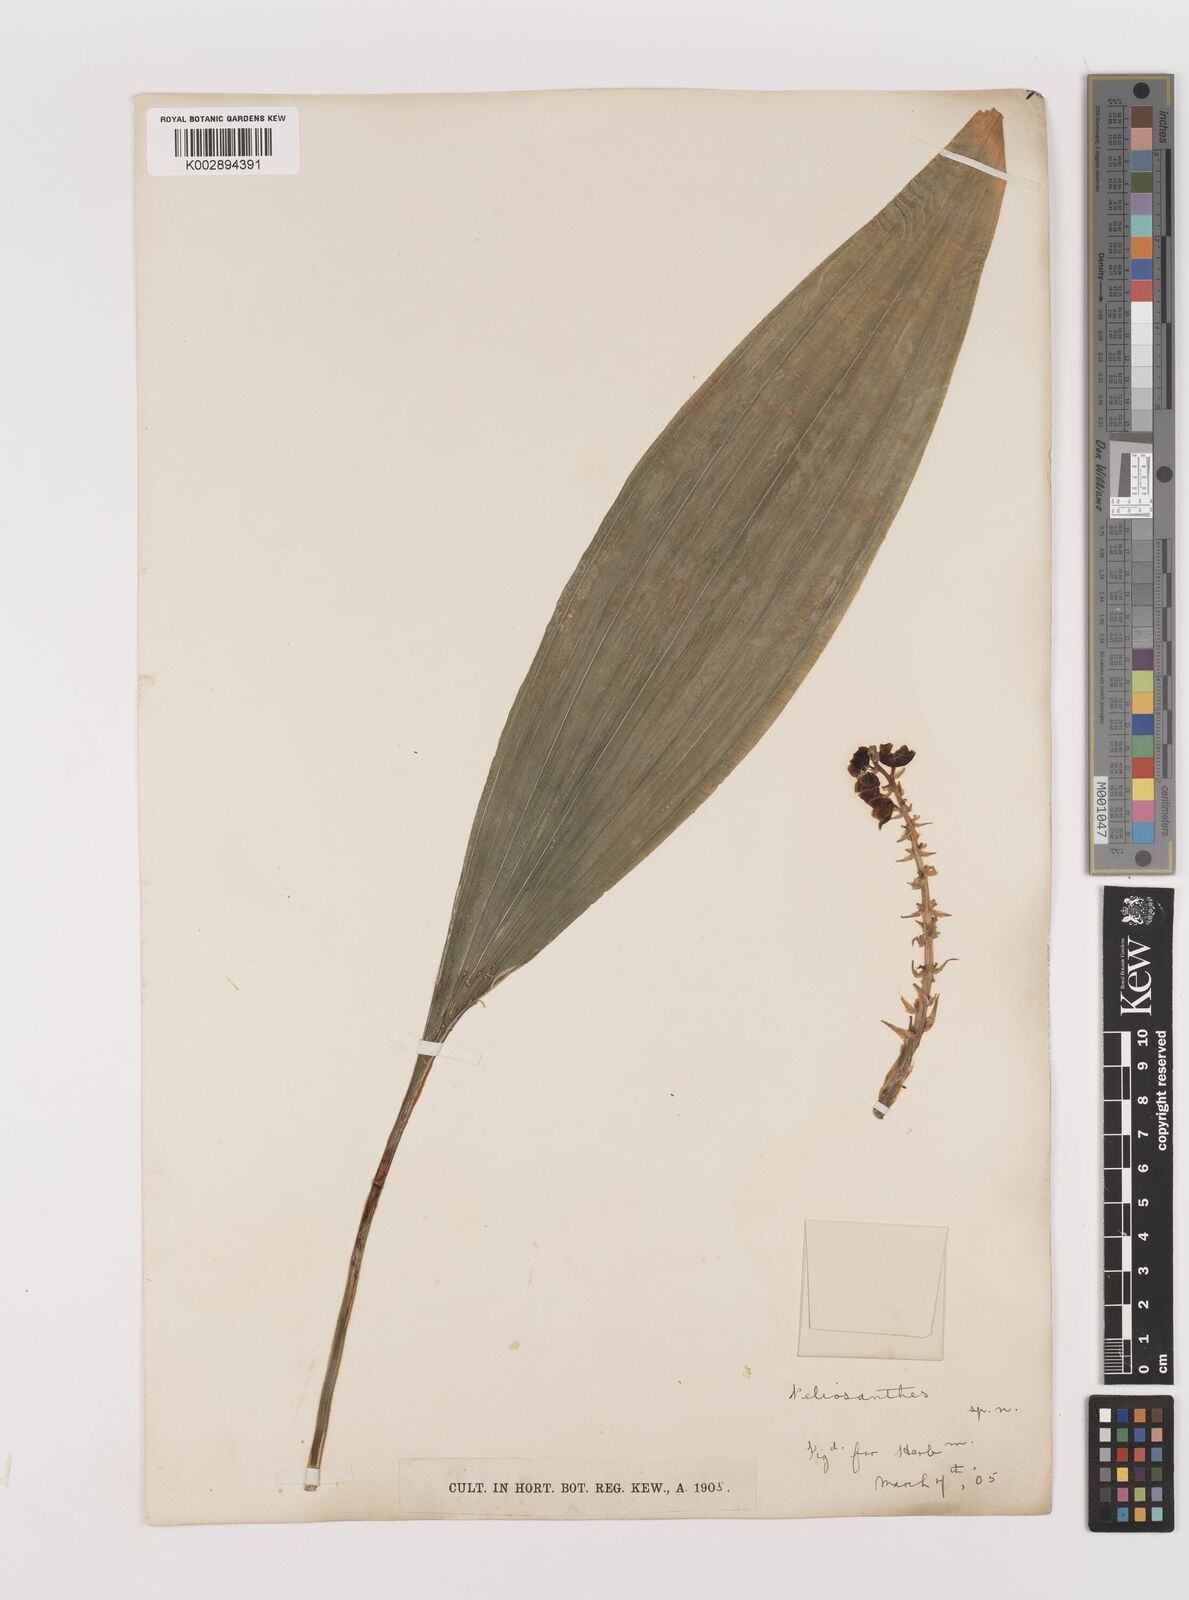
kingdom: Plantae
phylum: Tracheophyta
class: Liliopsida
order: Asparagales
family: Asparagaceae
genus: Peliosanthes
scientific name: Peliosanthes teta
